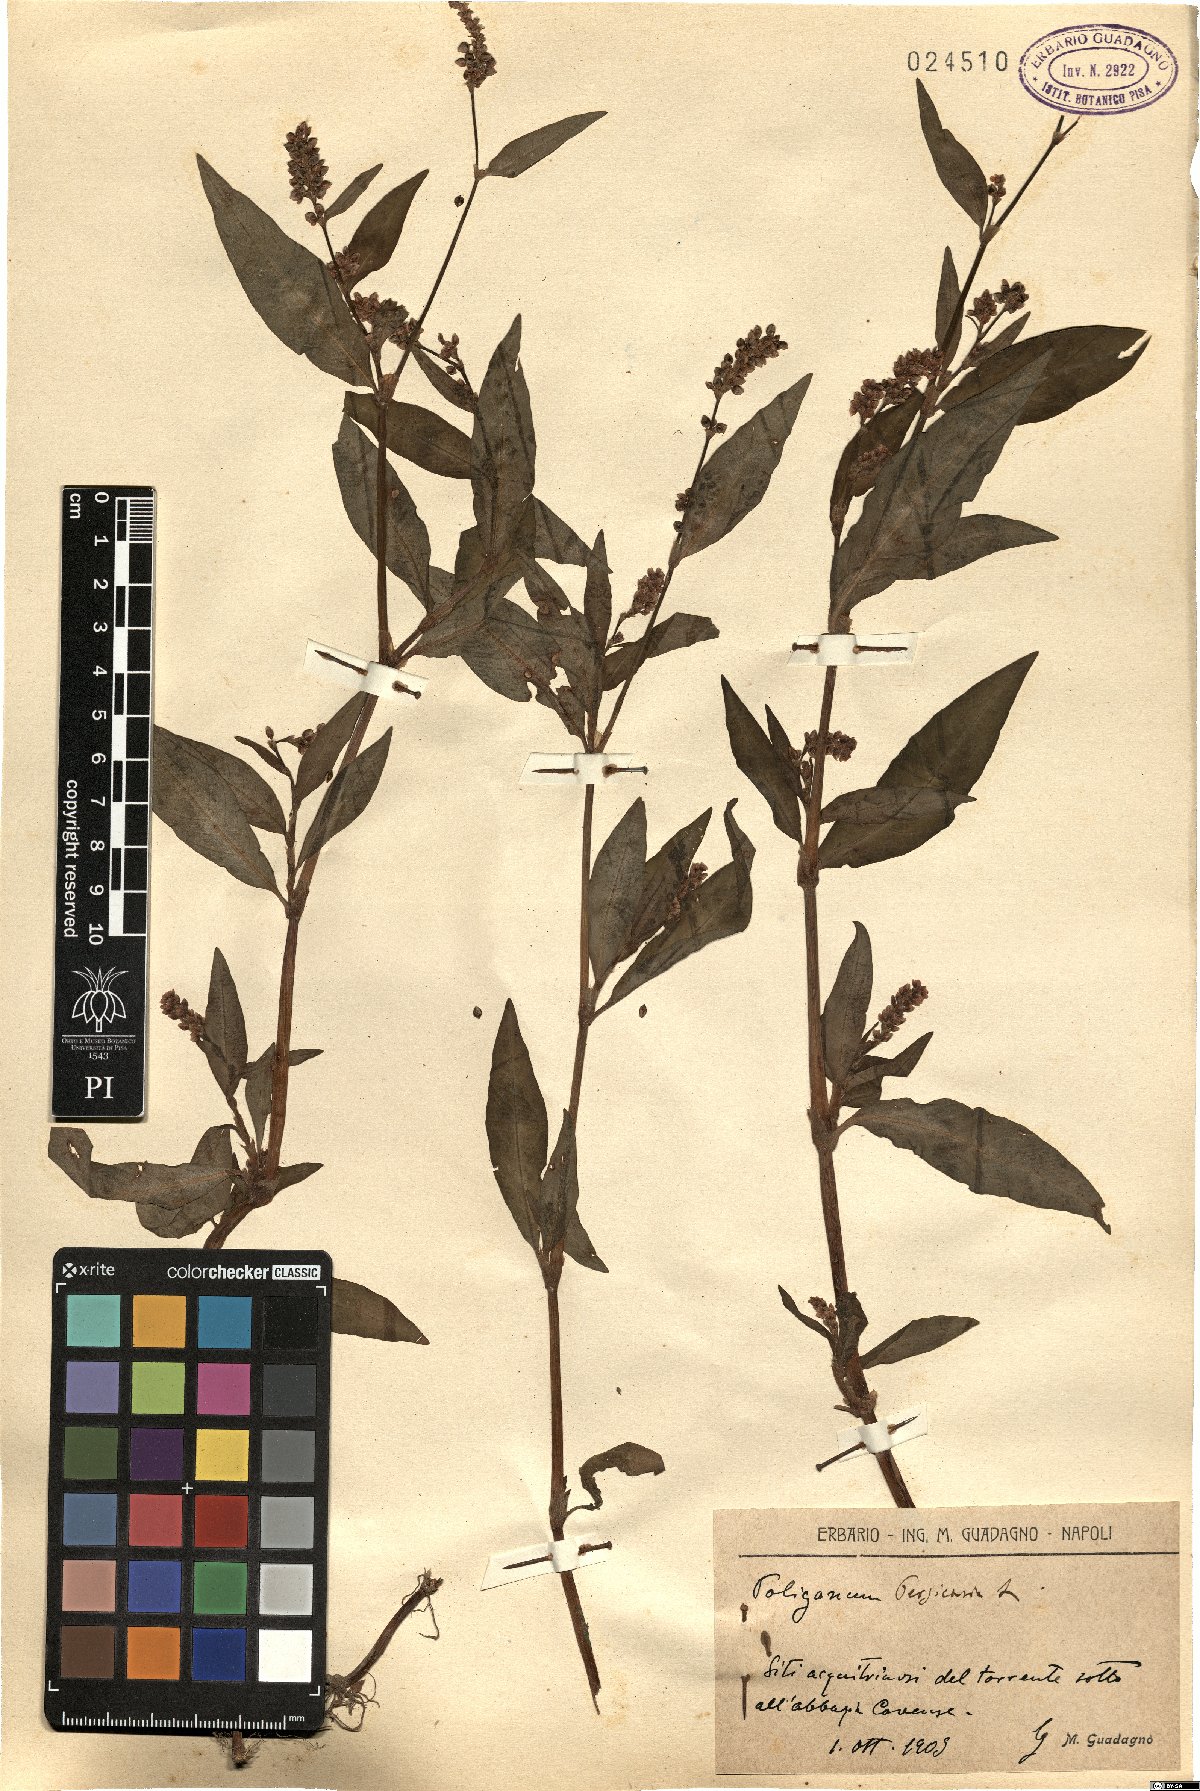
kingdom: Plantae
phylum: Tracheophyta
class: Magnoliopsida
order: Caryophyllales
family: Polygonaceae
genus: Persicaria
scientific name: Persicaria maculosa
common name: Redshank
